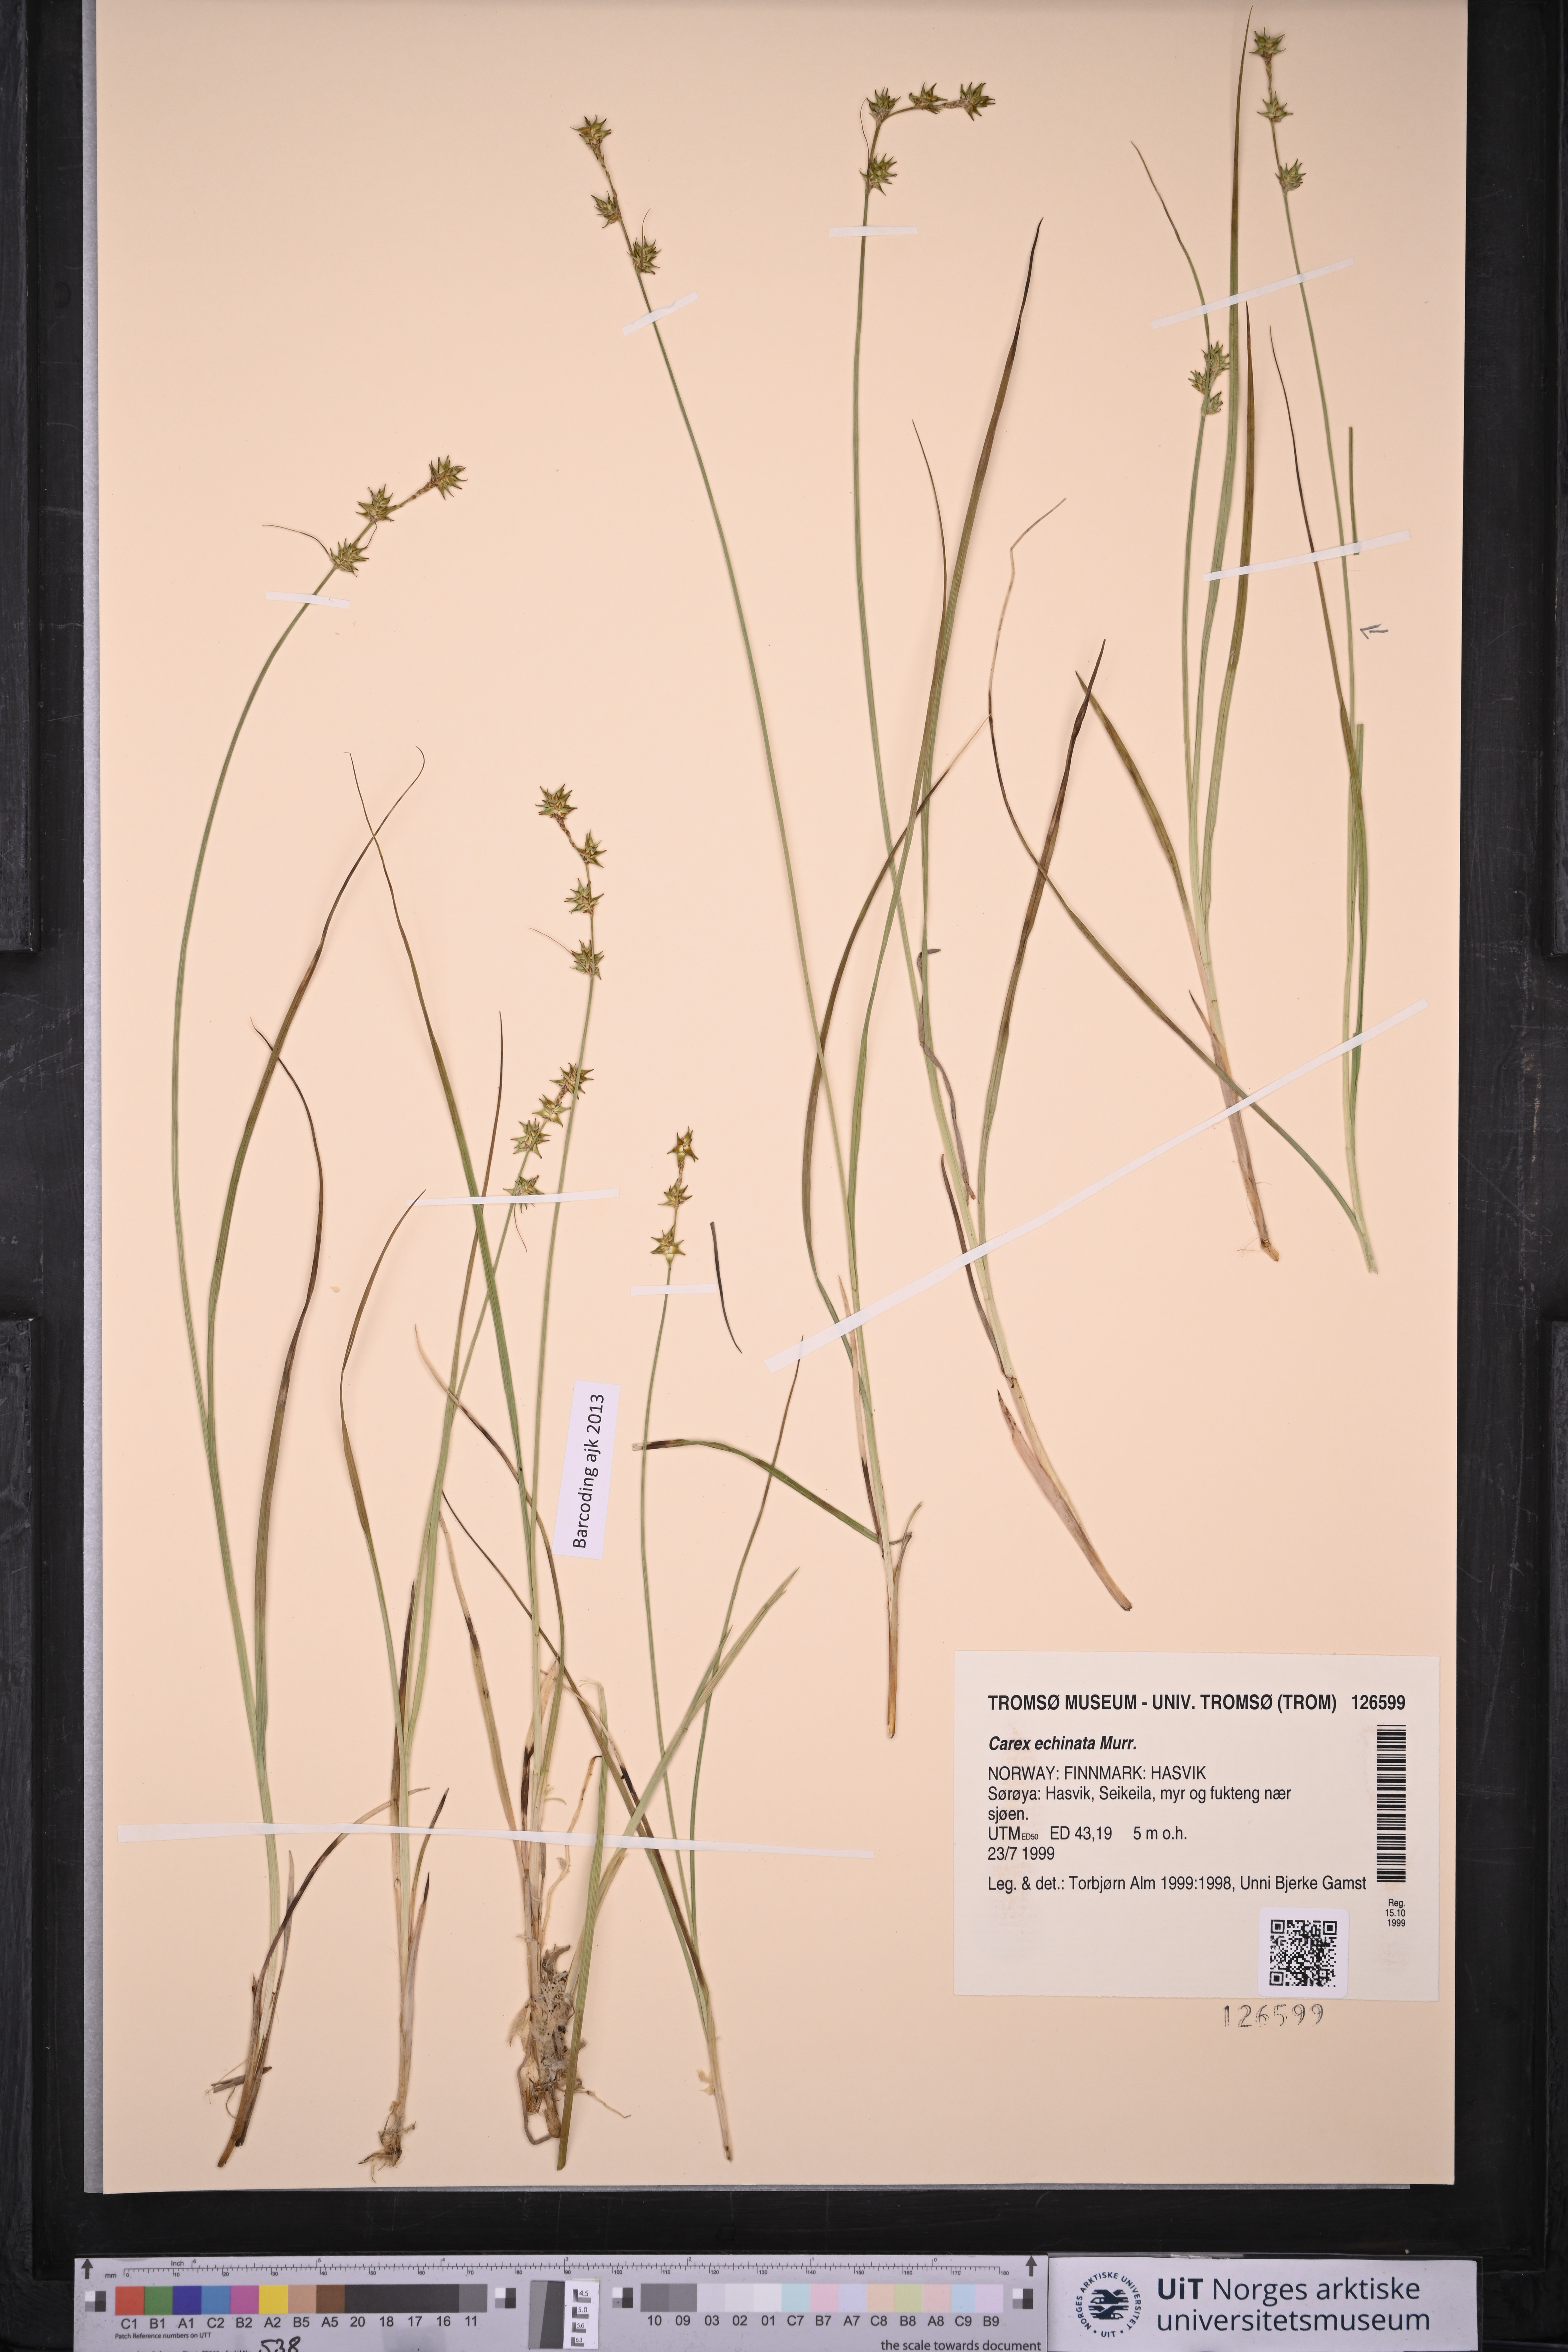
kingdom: Plantae
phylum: Tracheophyta
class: Liliopsida
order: Poales
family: Cyperaceae
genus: Carex
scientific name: Carex echinata
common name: Star sedge
